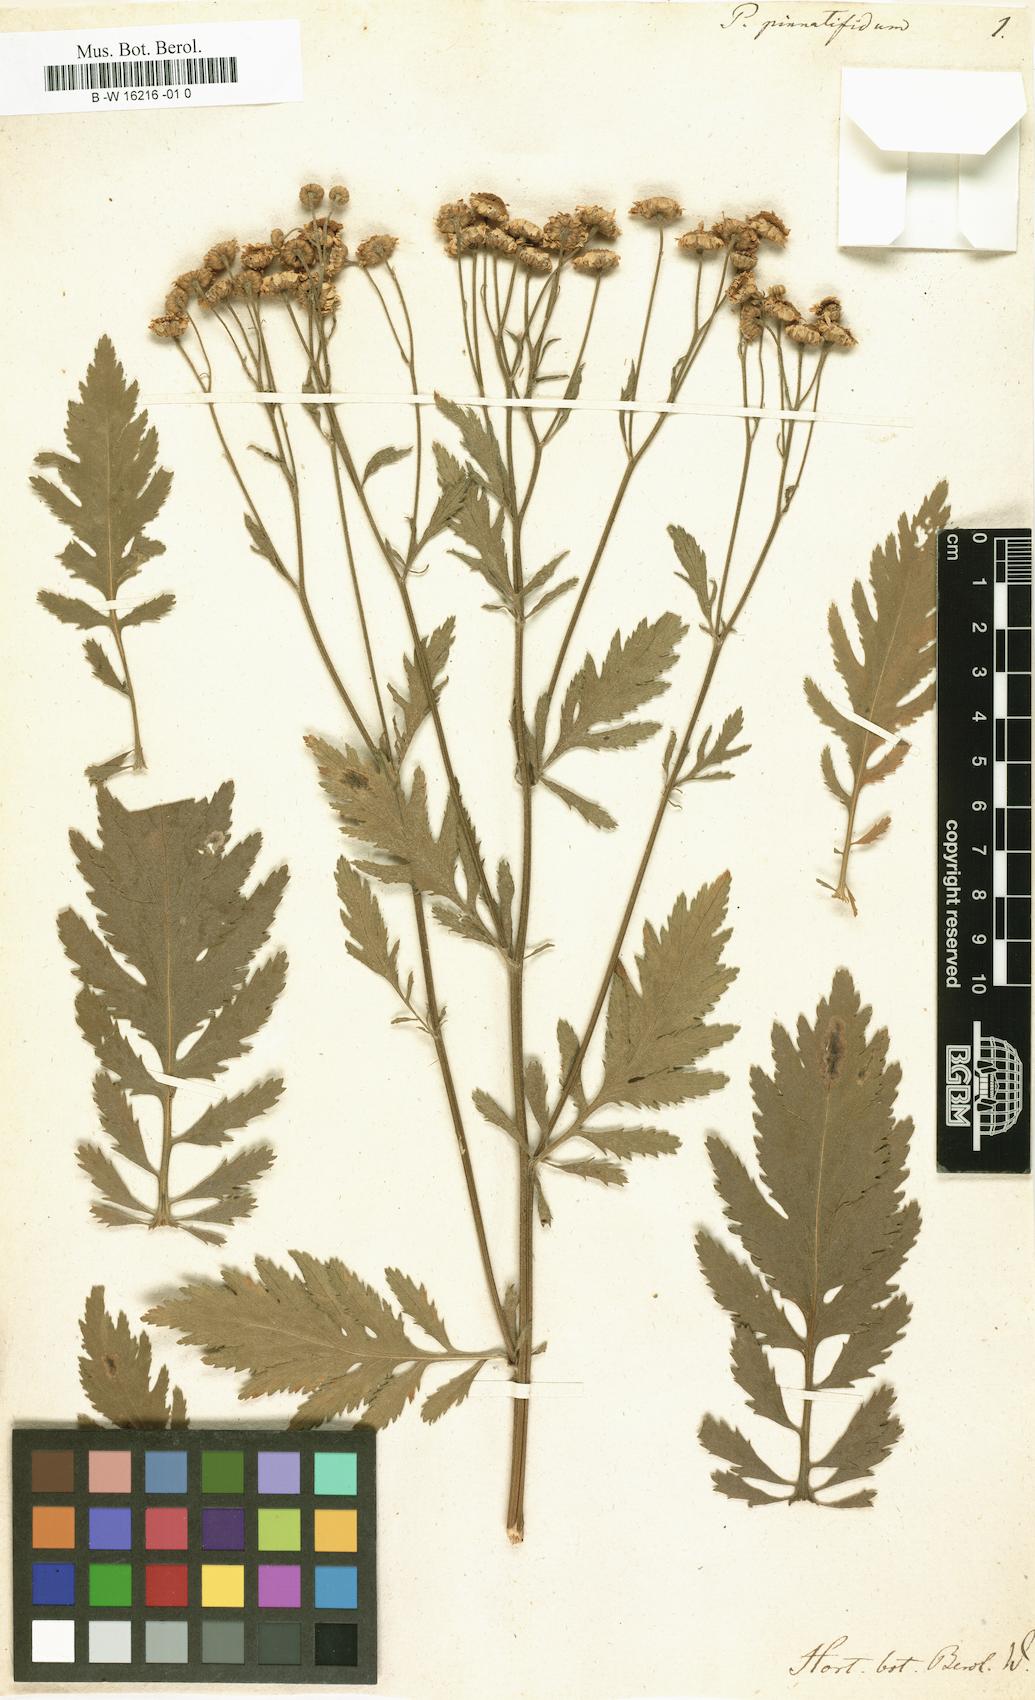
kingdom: Plantae
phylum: Tracheophyta
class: Magnoliopsida
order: Asterales
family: Asteraceae
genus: Argyranthemum
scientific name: Argyranthemum
